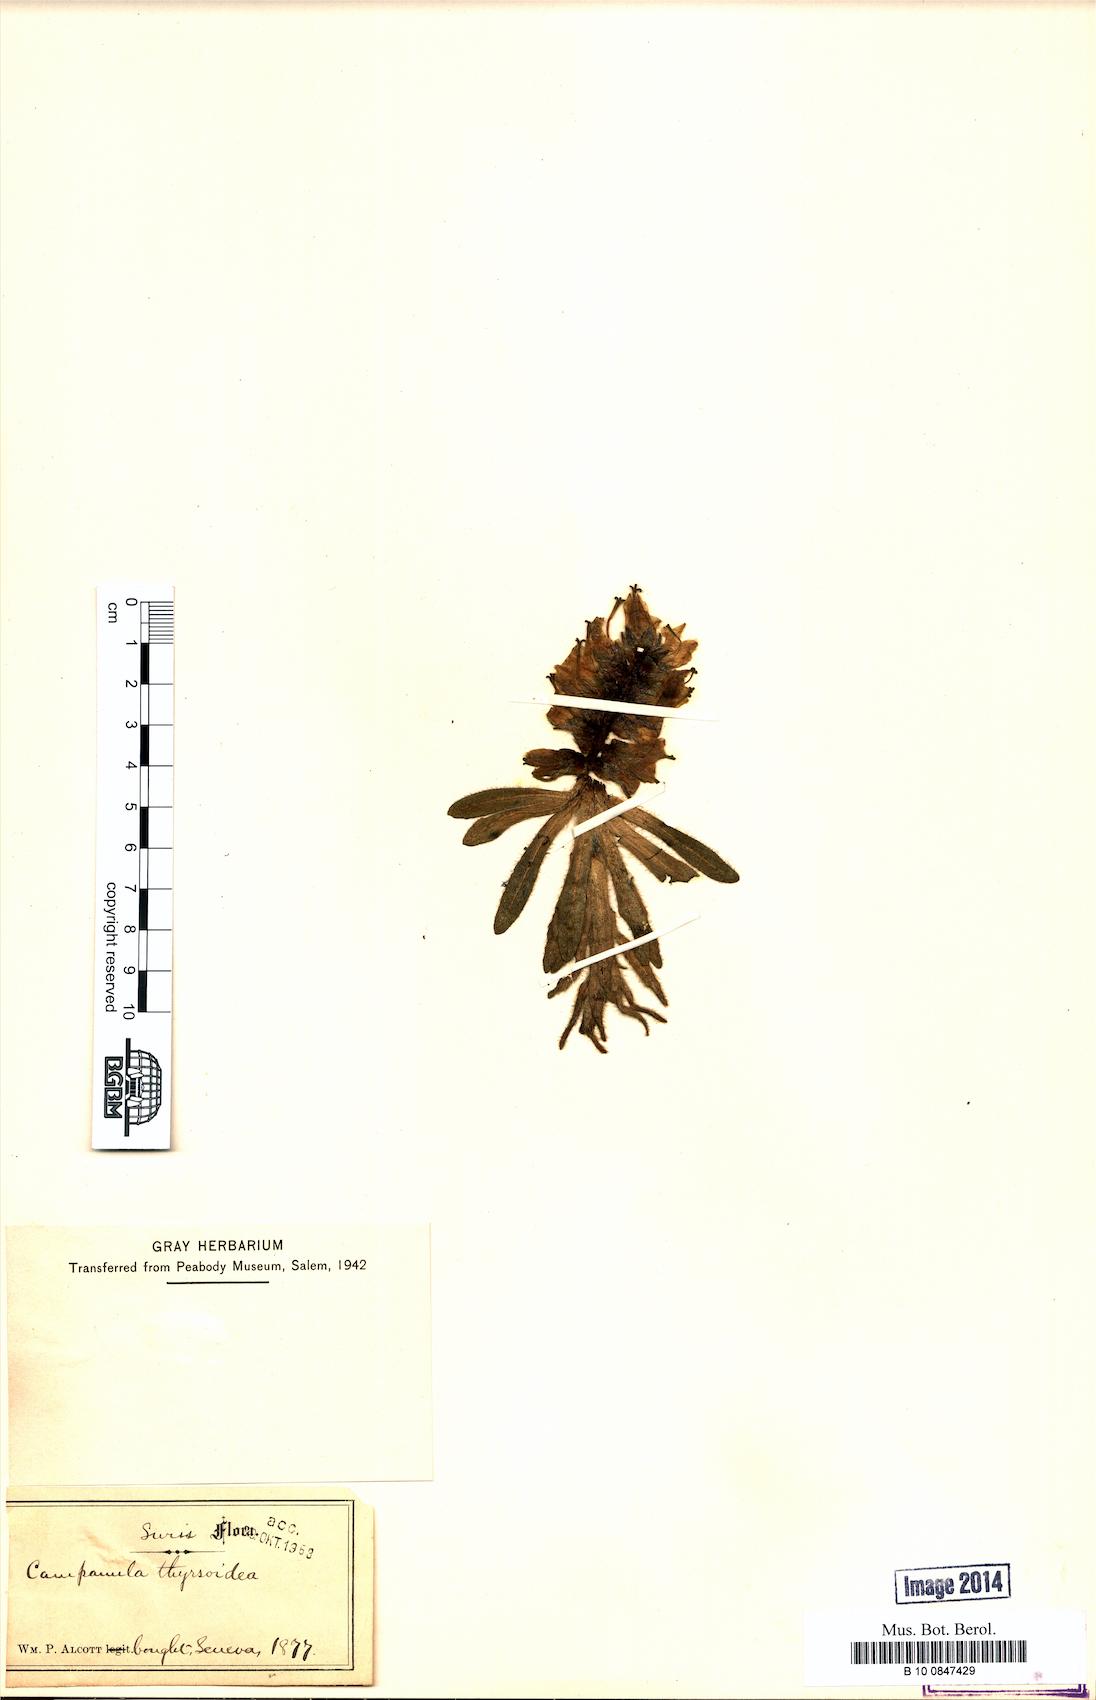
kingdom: Plantae
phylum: Tracheophyta
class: Magnoliopsida
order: Asterales
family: Campanulaceae
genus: Campanula
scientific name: Campanula thyrsoides
